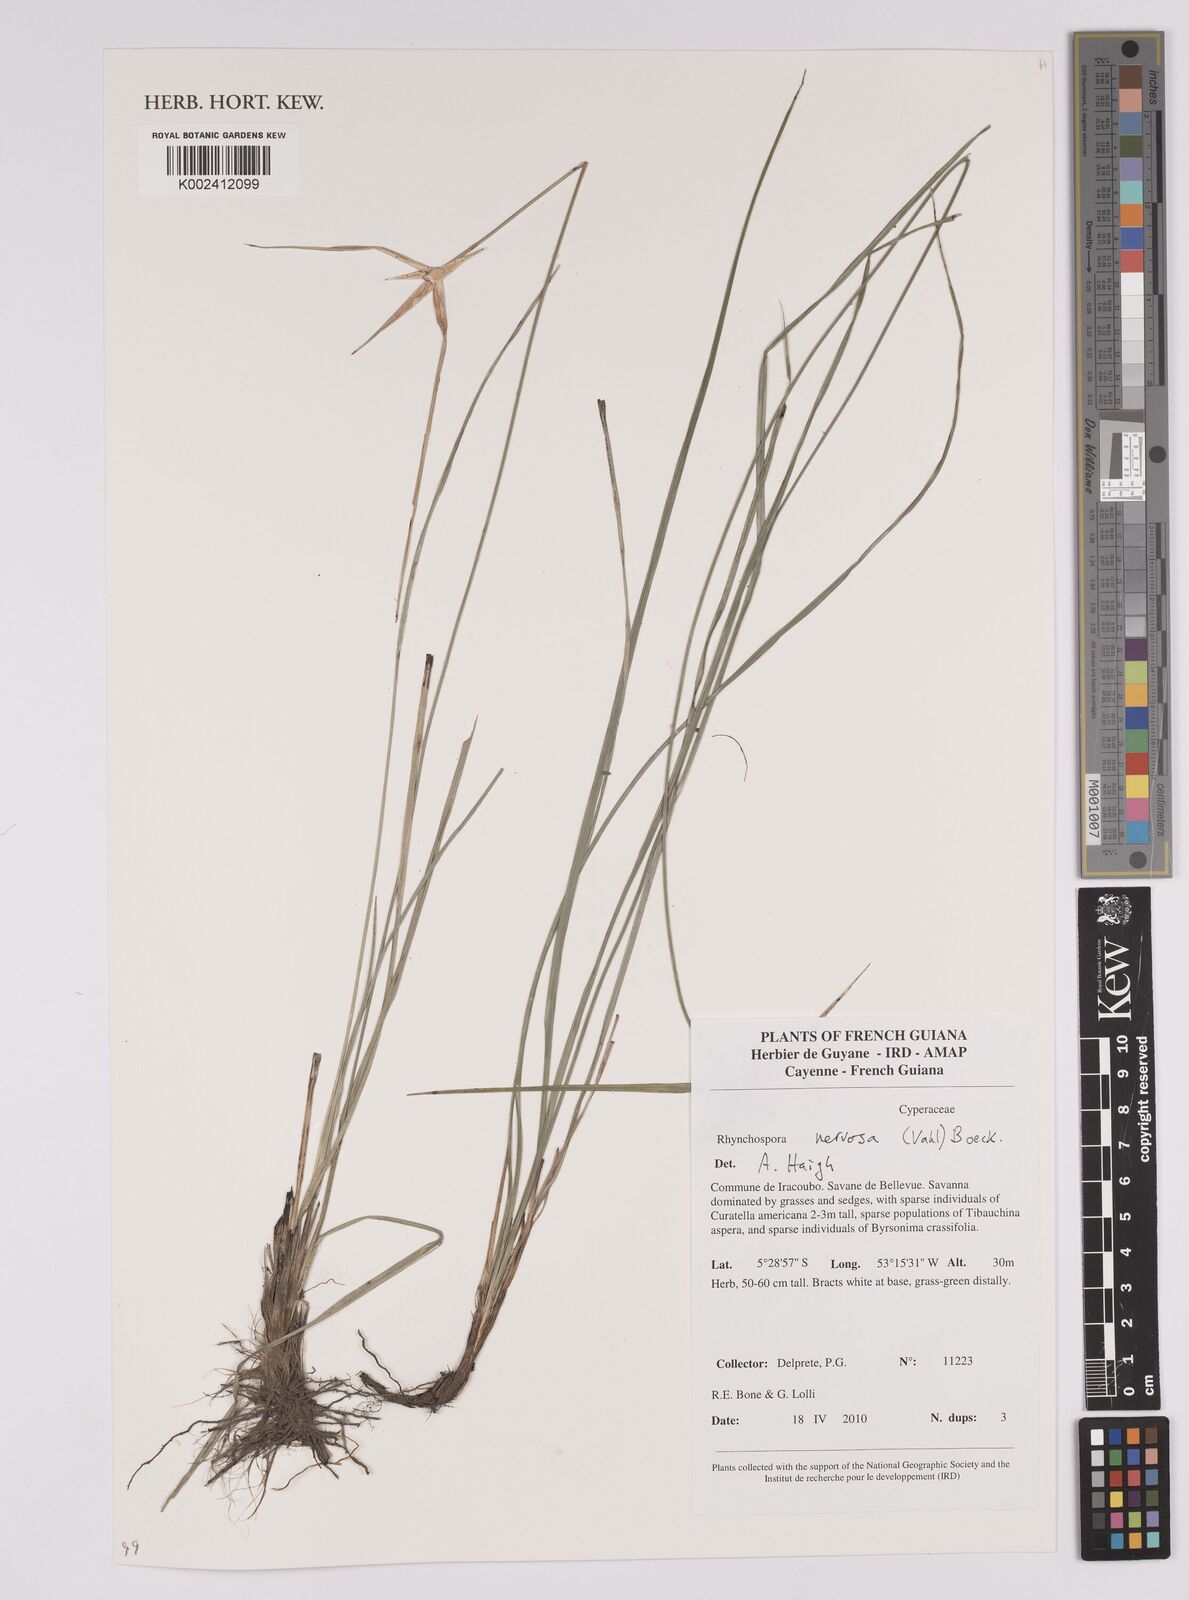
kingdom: Plantae
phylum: Tracheophyta
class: Liliopsida
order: Poales
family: Cyperaceae
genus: Rhynchospora
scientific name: Rhynchospora nervosa
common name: Star sedge
